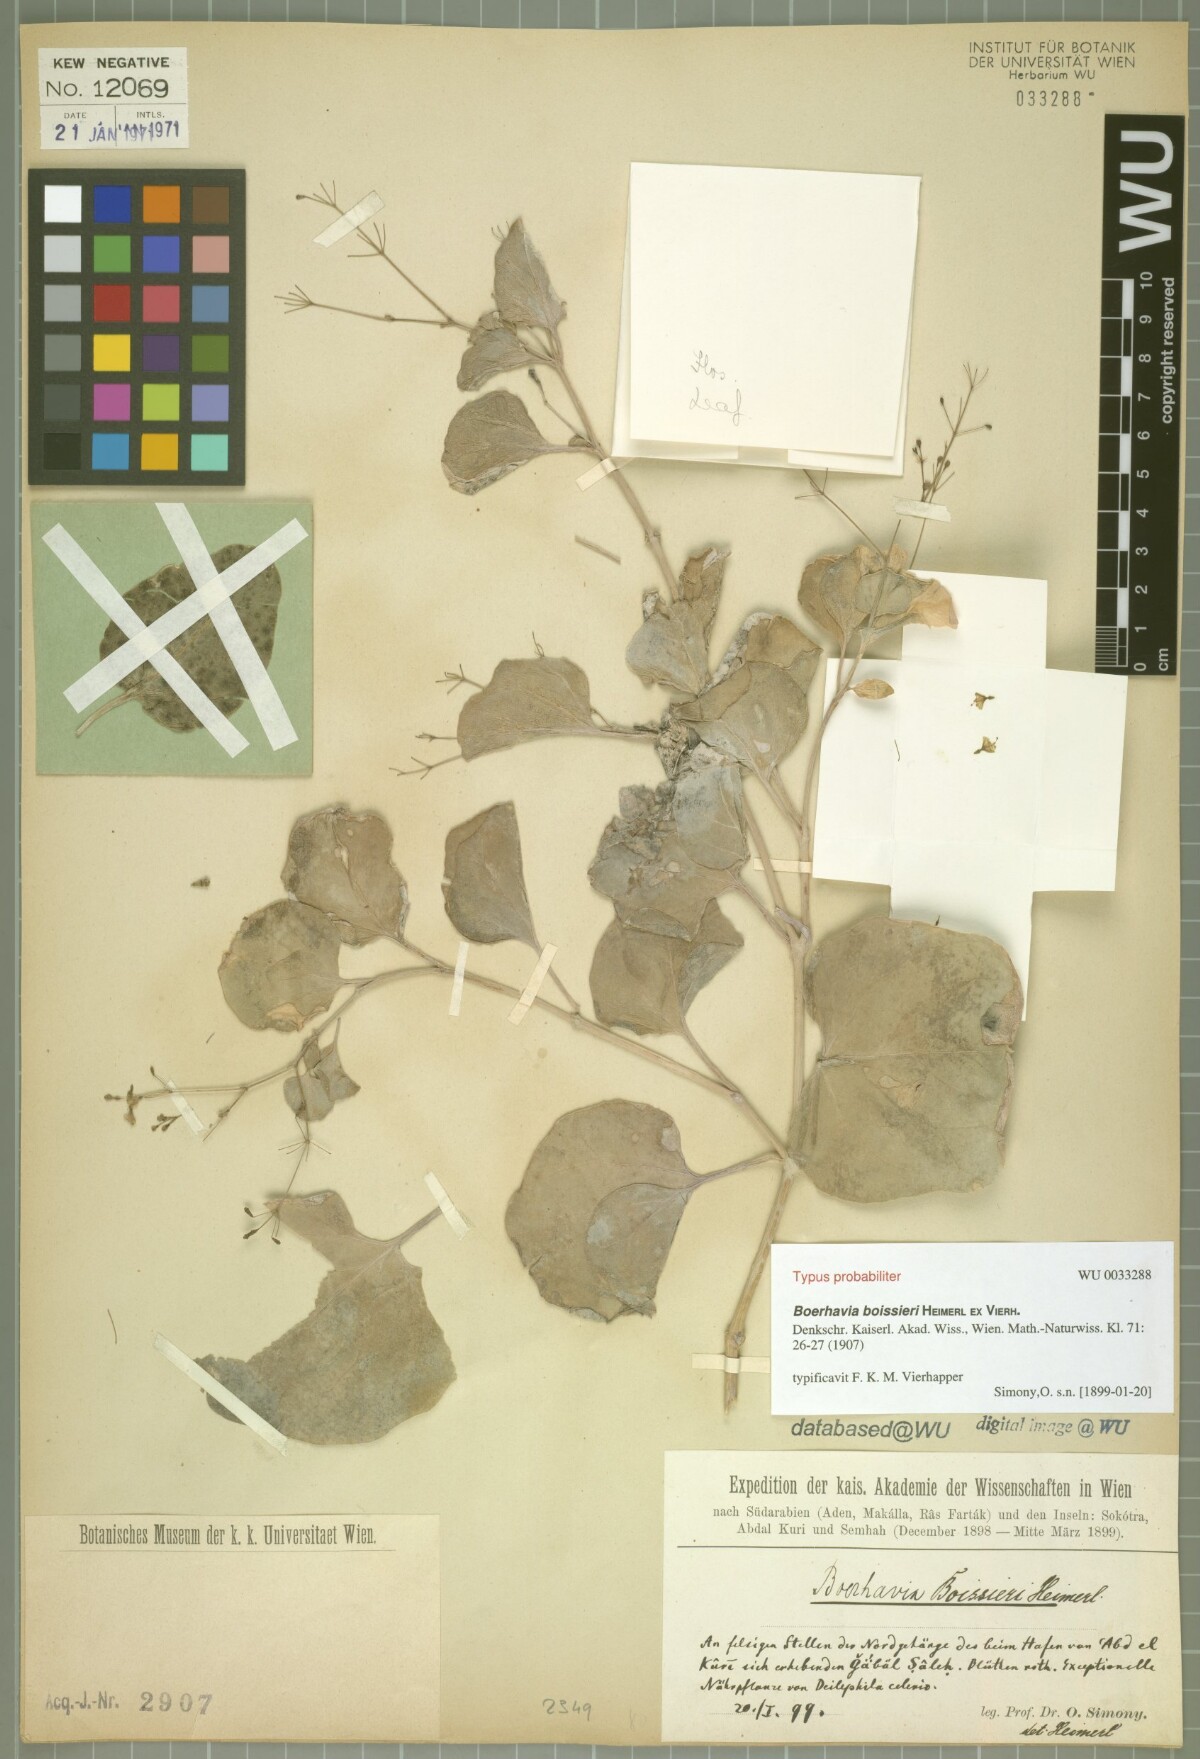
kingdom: Plantae
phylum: Tracheophyta
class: Magnoliopsida
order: Caryophyllales
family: Nyctaginaceae
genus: Commicarpus
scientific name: Commicarpus boissieri
